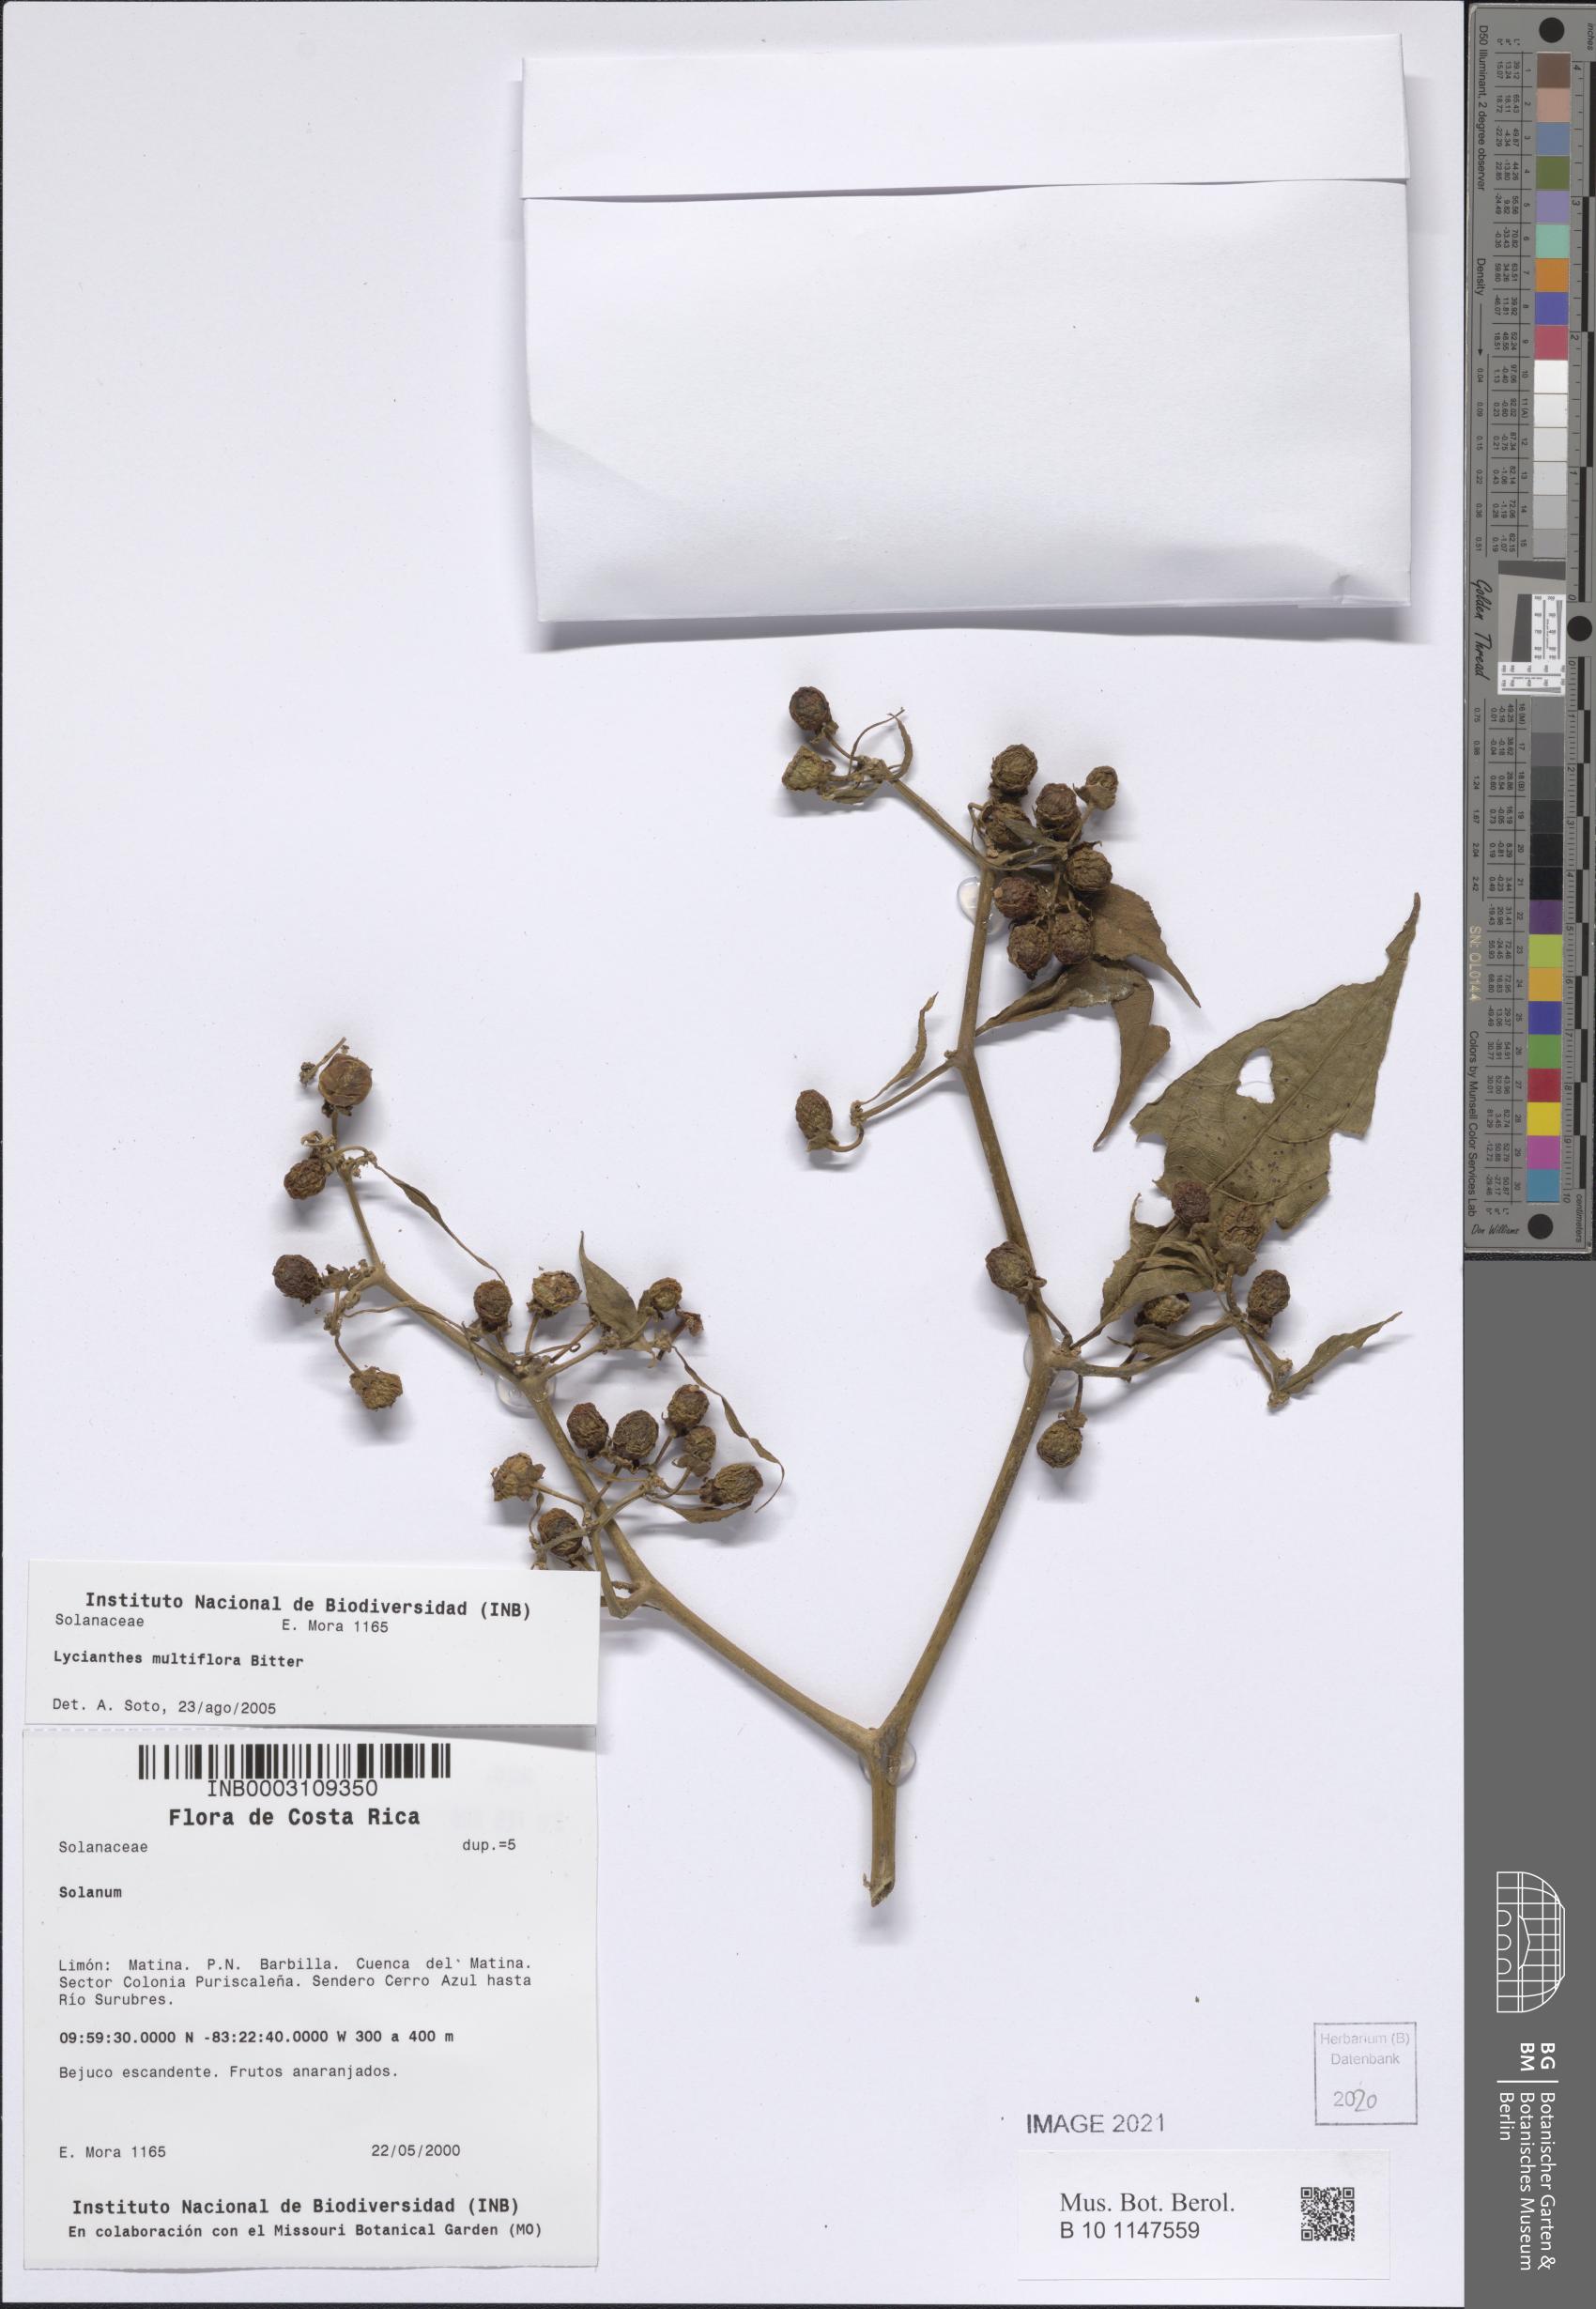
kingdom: Plantae
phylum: Tracheophyta
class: Magnoliopsida
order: Solanales
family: Solanaceae
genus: Lycianthes
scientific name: Lycianthes multiflora
